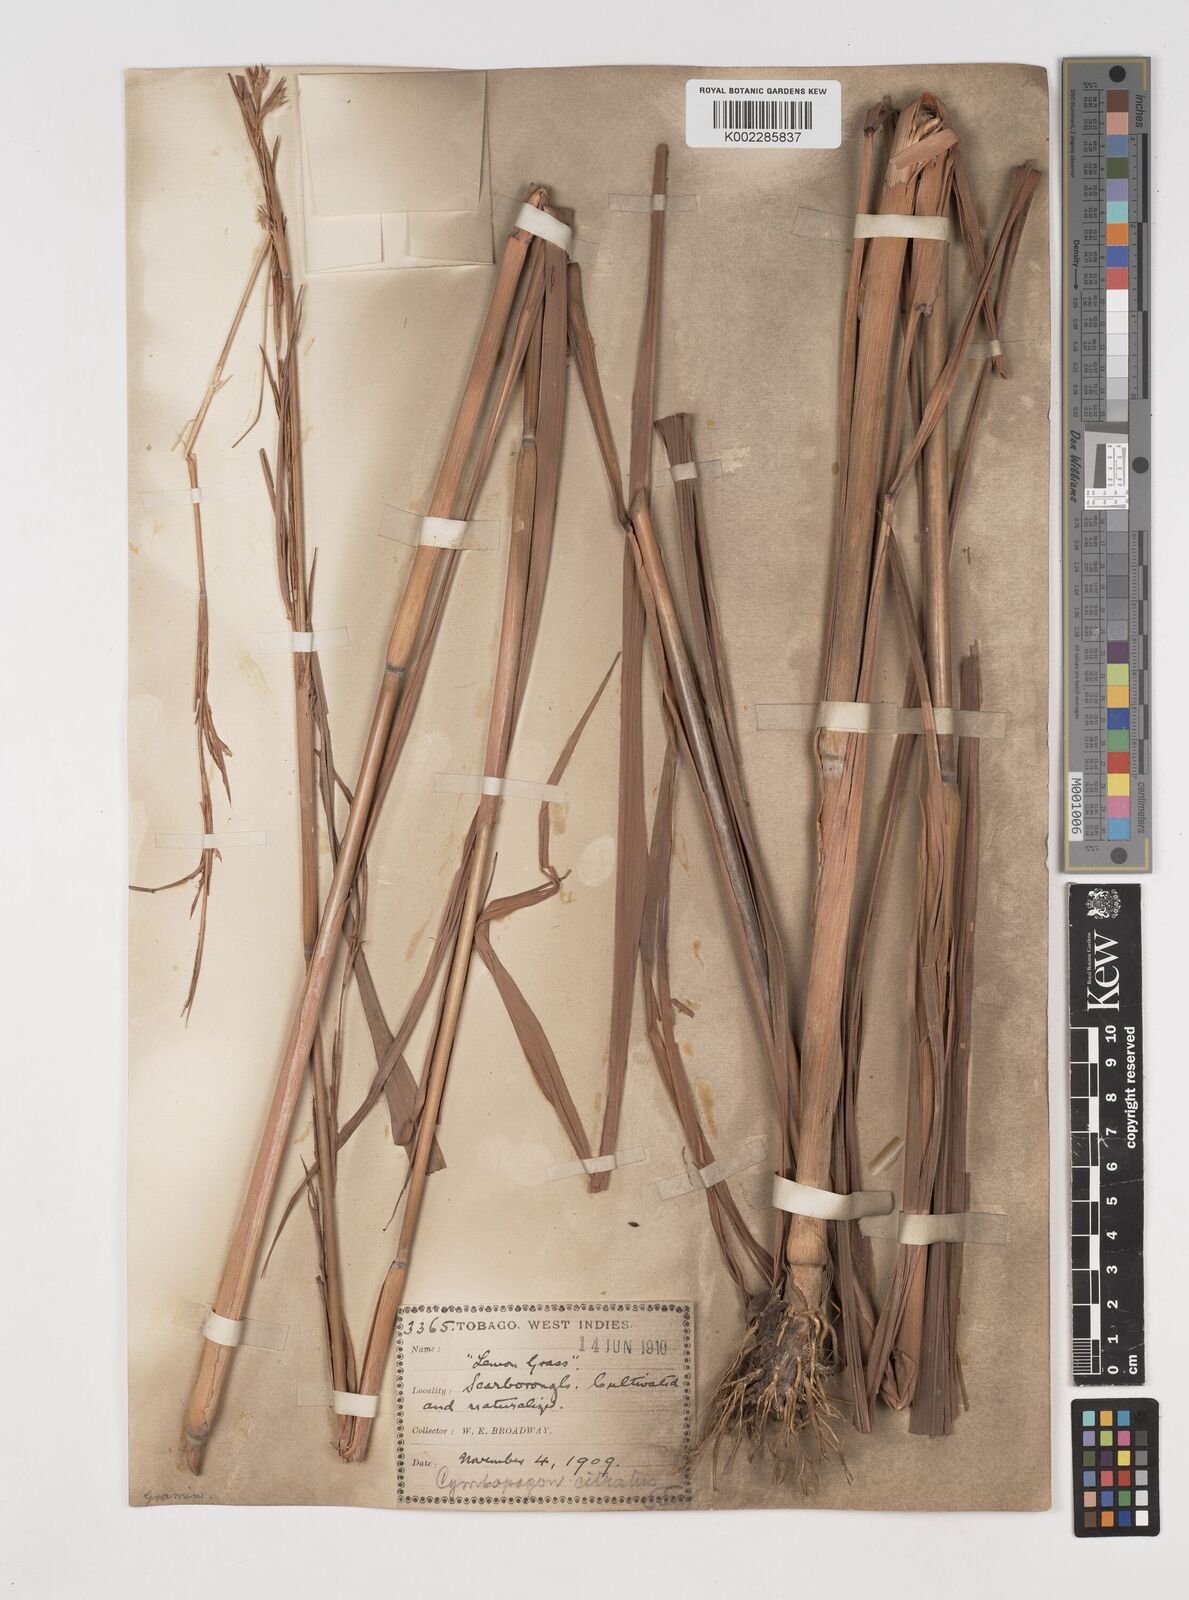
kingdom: Plantae
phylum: Tracheophyta
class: Liliopsida
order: Poales
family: Poaceae
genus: Cymbopogon
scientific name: Cymbopogon citratus
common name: Lemon grass
